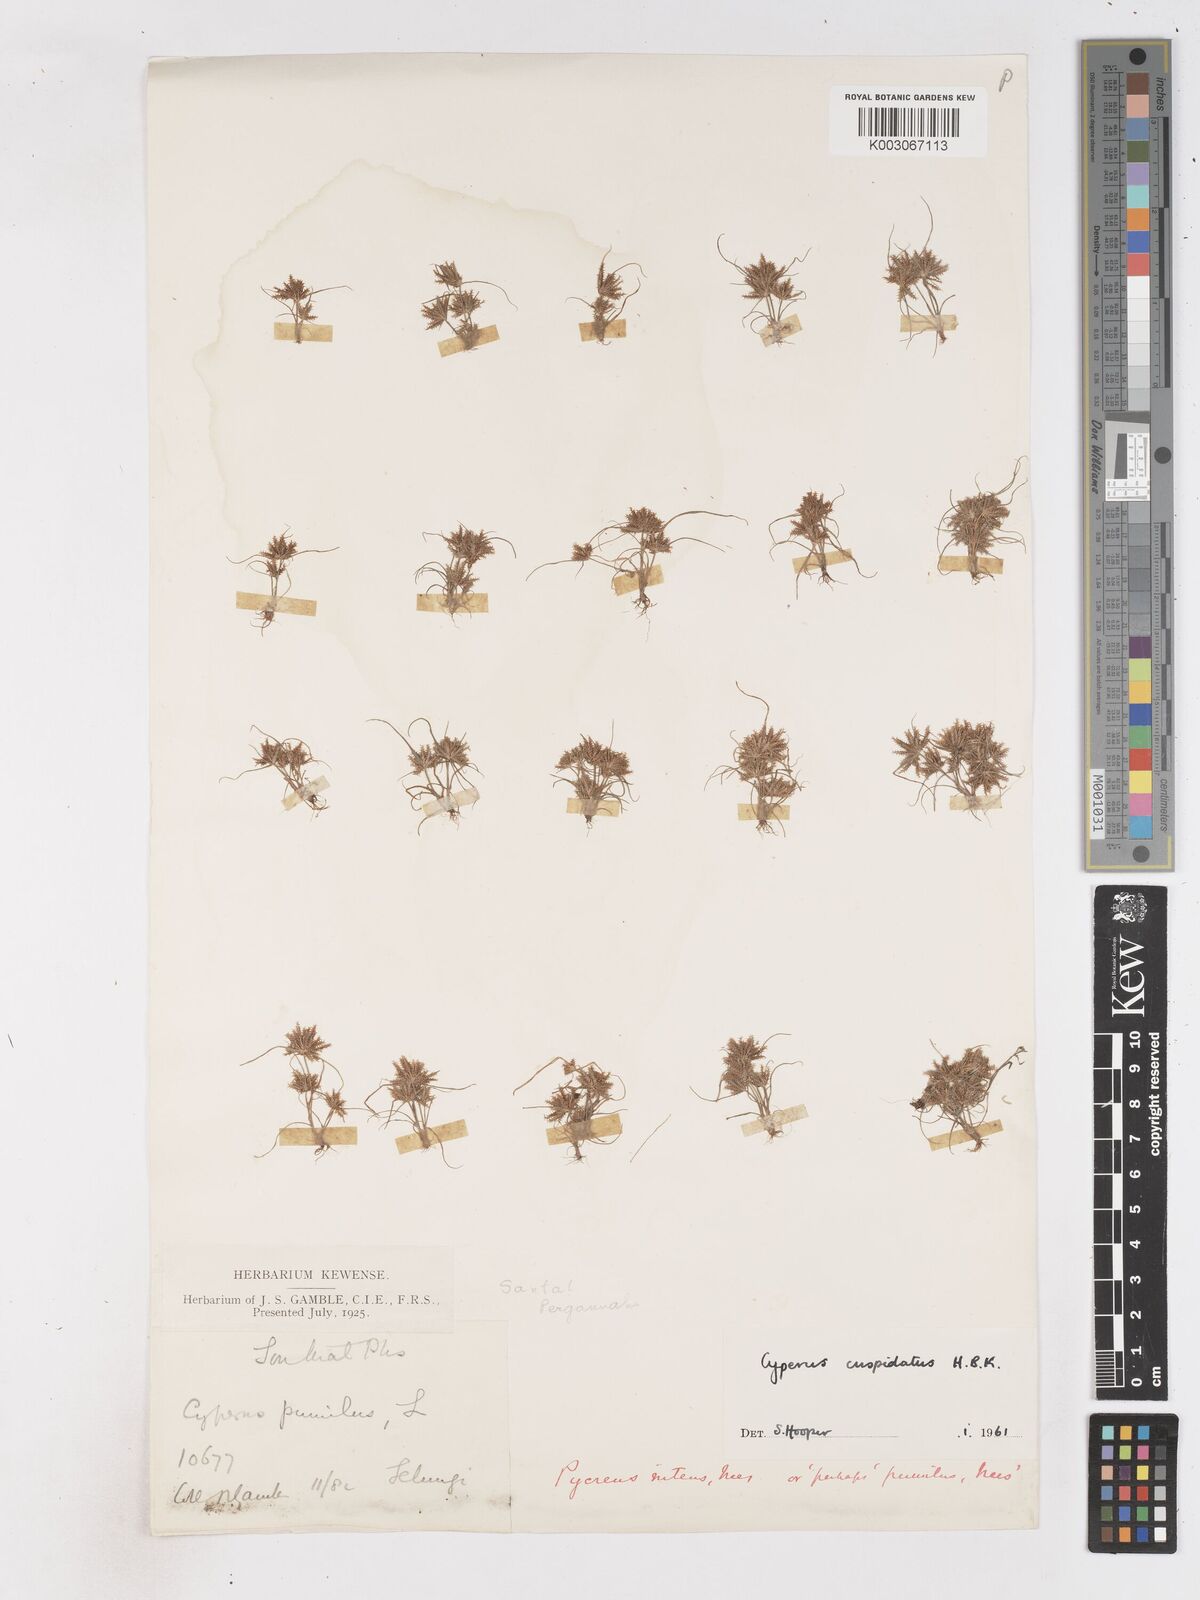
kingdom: Plantae
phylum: Tracheophyta
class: Liliopsida
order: Poales
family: Cyperaceae
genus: Cyperus
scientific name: Cyperus cuspidatus
